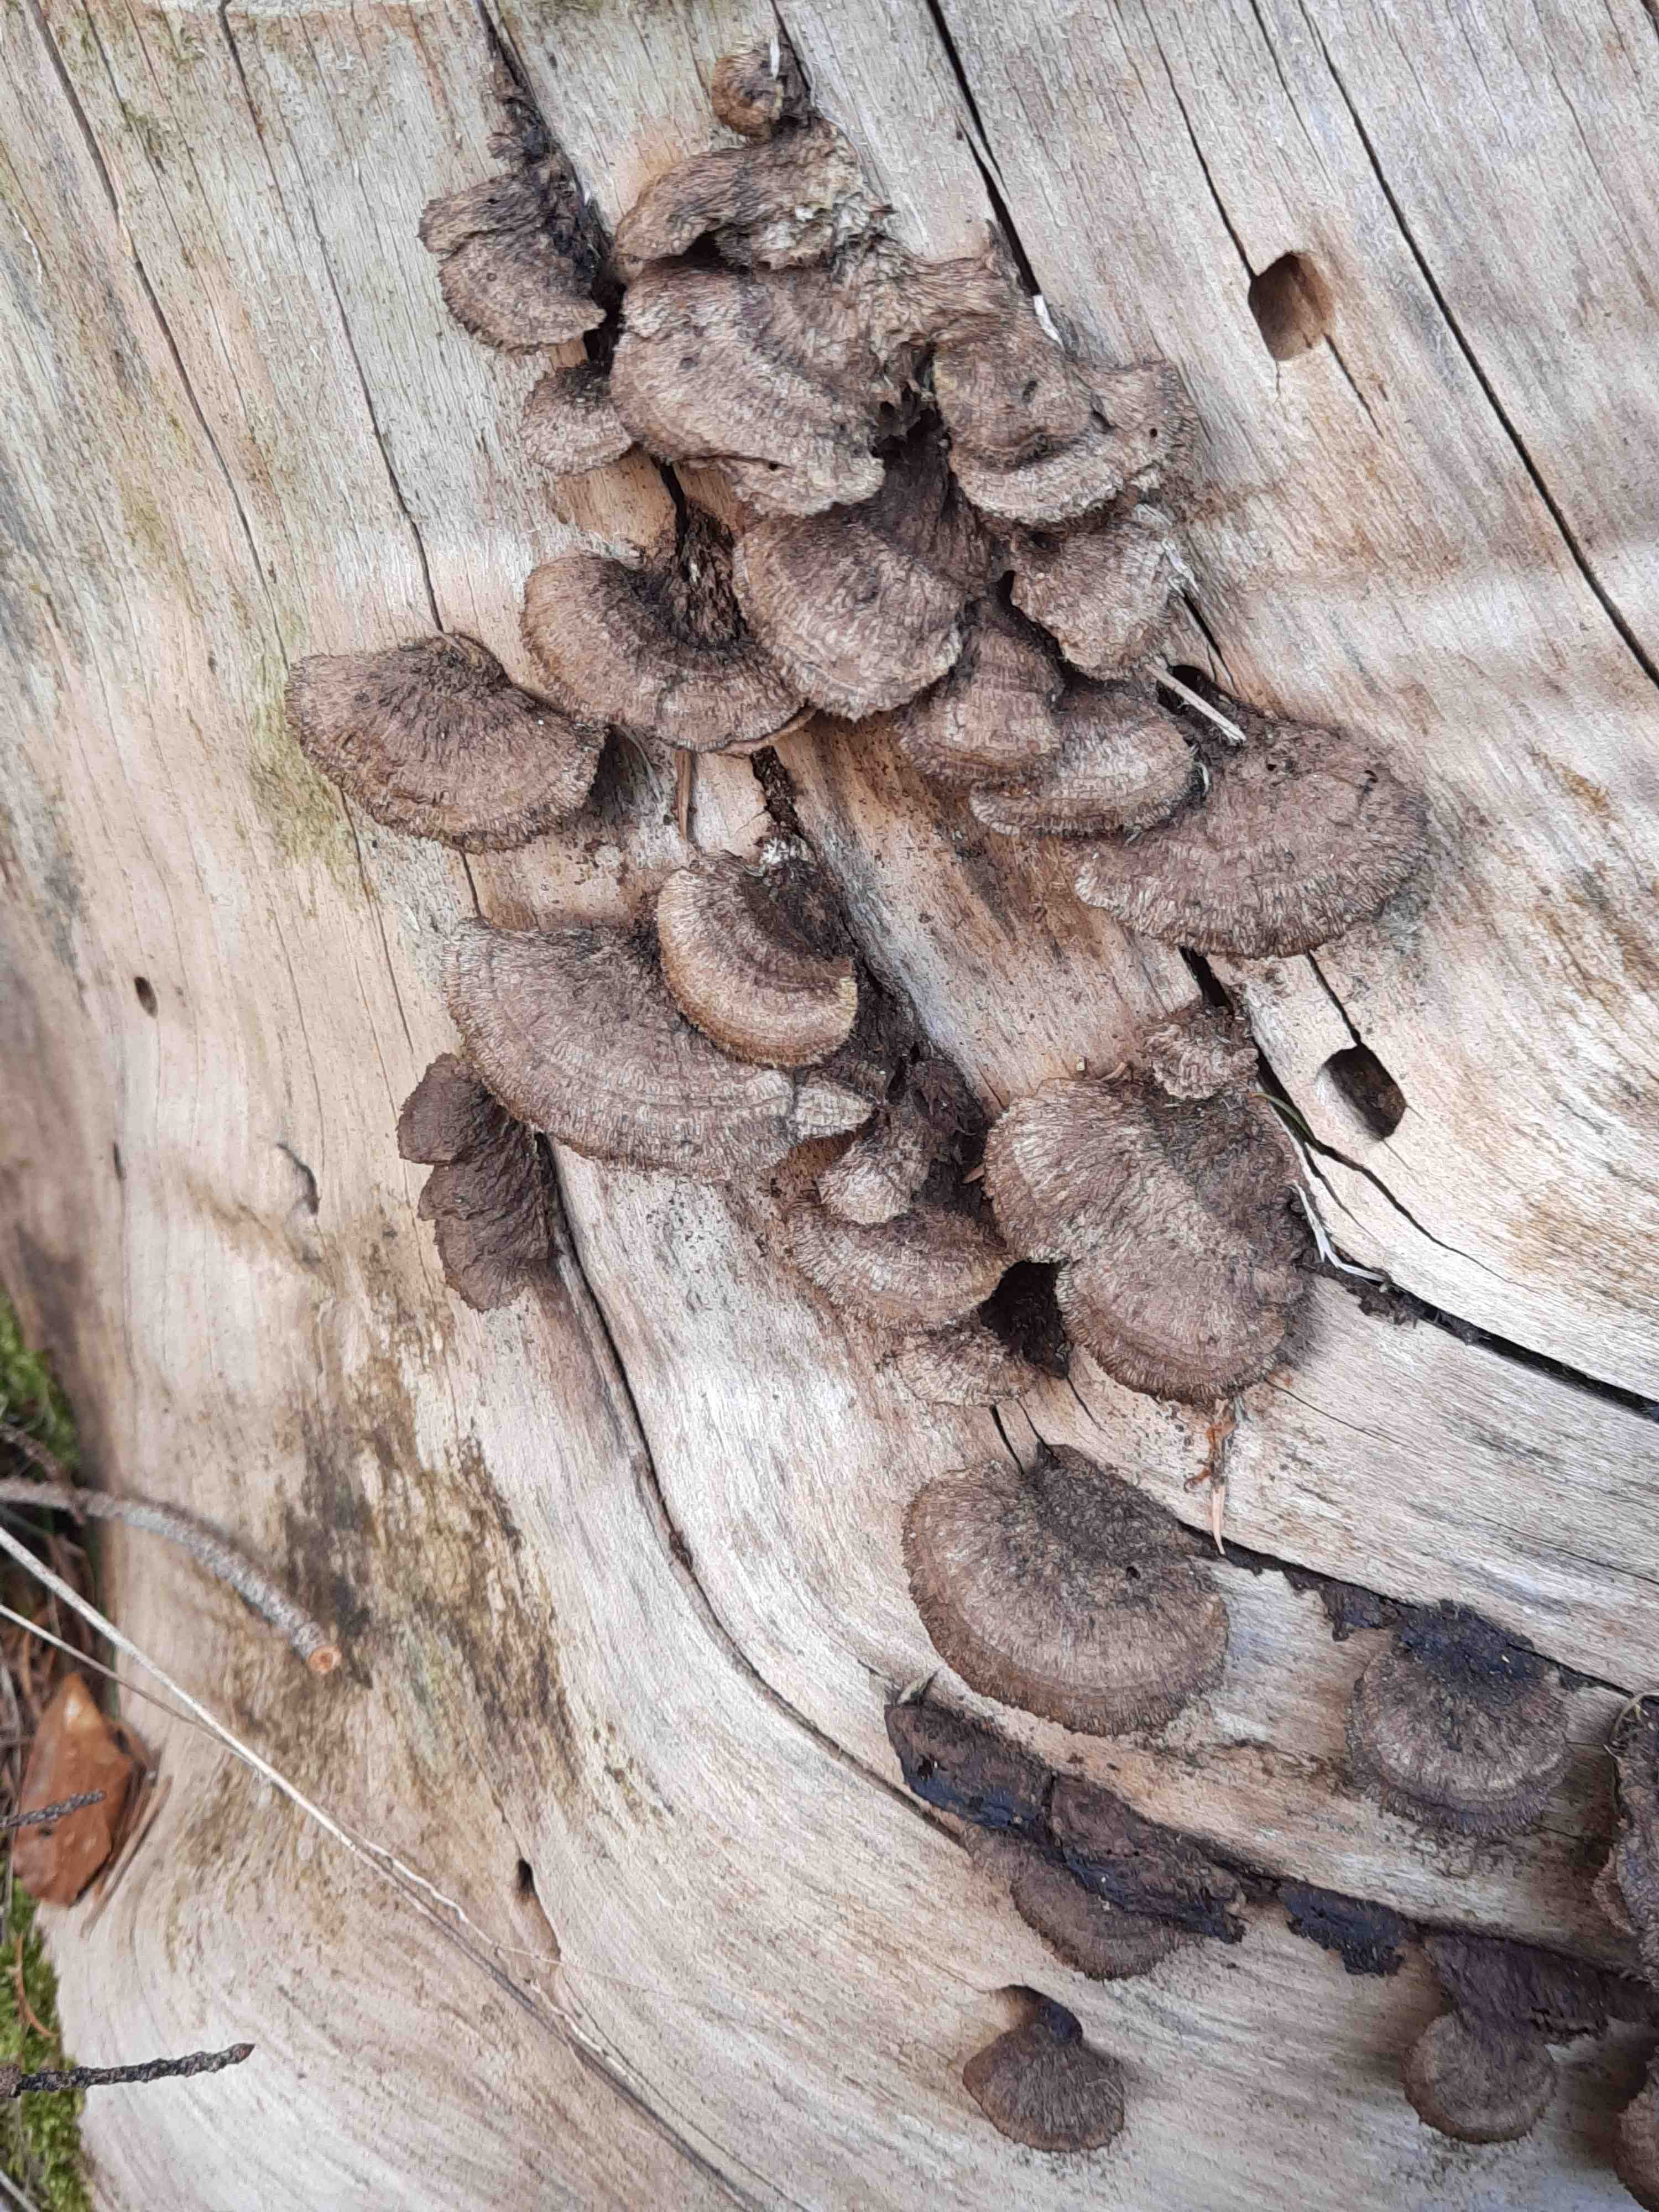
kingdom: Fungi
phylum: Basidiomycota
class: Agaricomycetes
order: Gloeophyllales
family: Gloeophyllaceae
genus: Gloeophyllum
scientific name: Gloeophyllum sepiarium
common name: fyrre-korkhat
